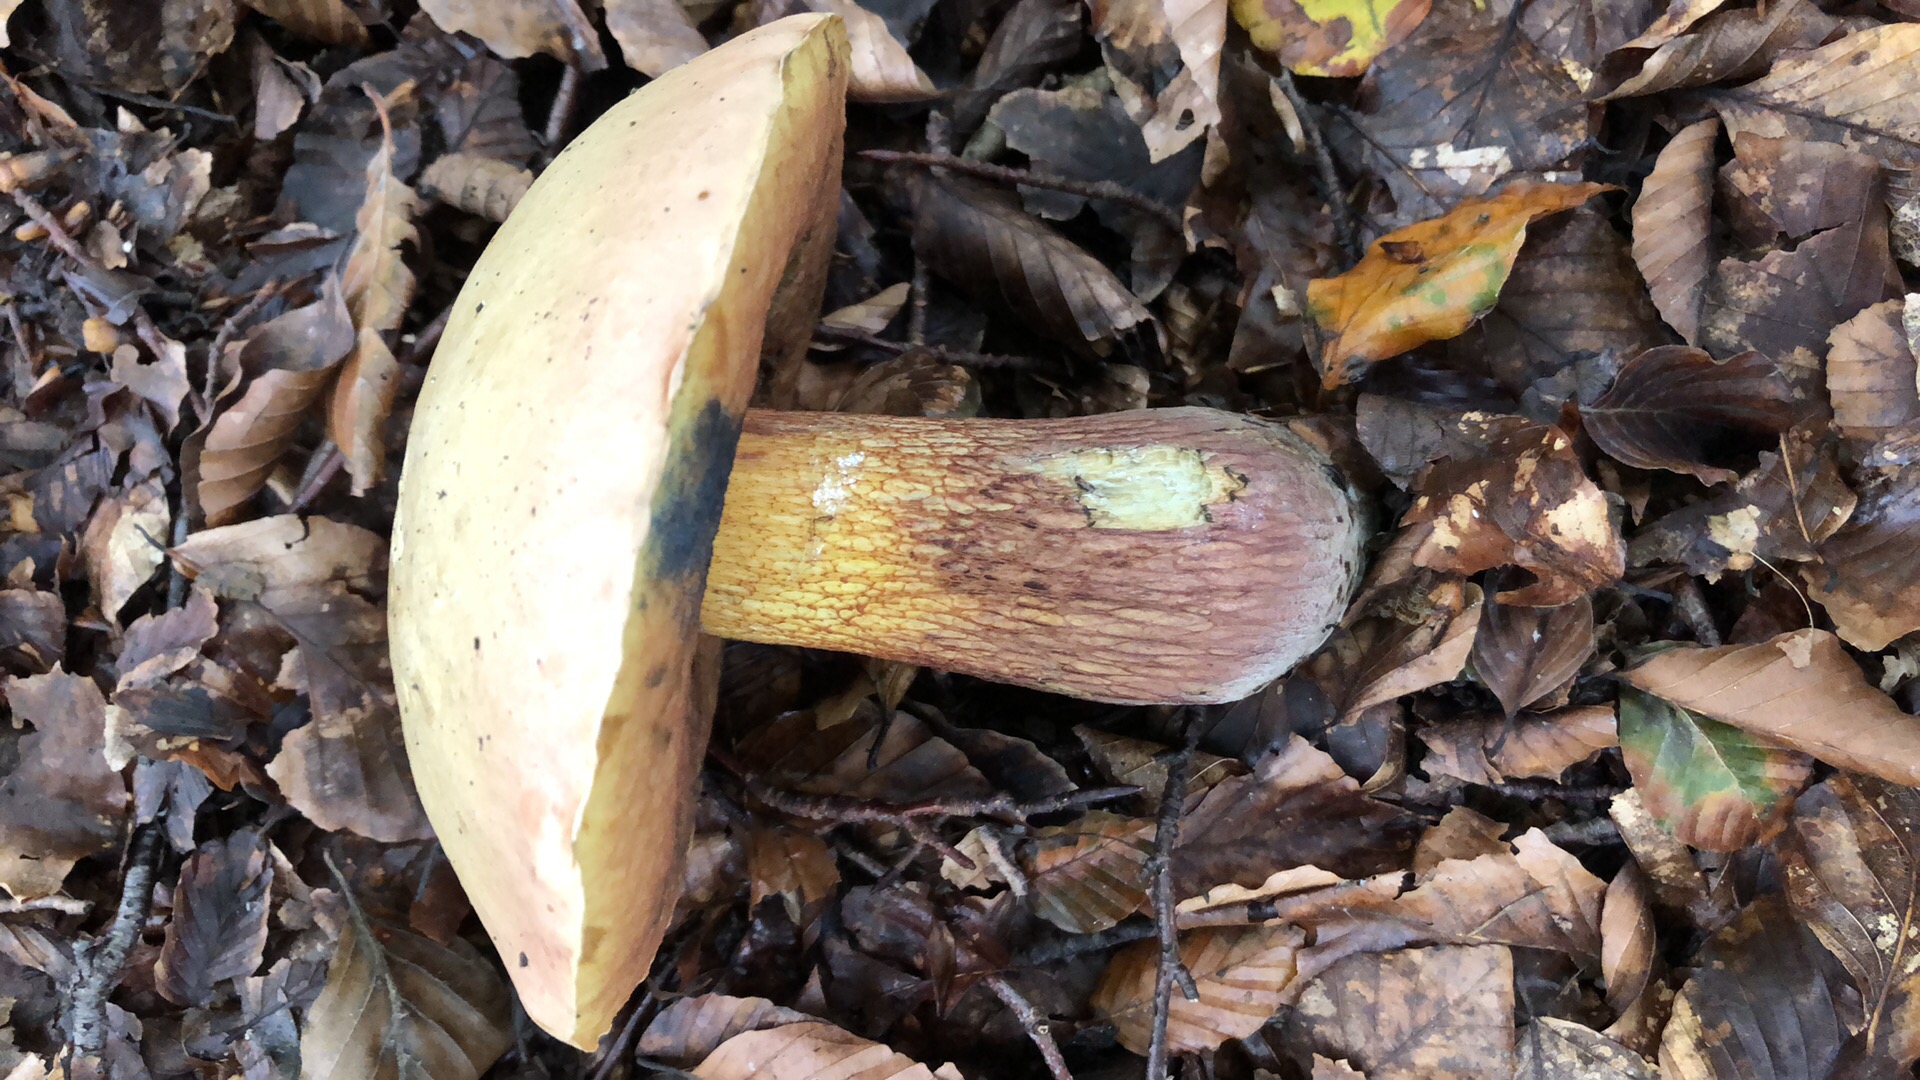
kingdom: Fungi
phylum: Basidiomycota
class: Agaricomycetes
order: Boletales
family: Boletaceae
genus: Suillellus
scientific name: Suillellus luridus
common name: netstokket indigorørhat
